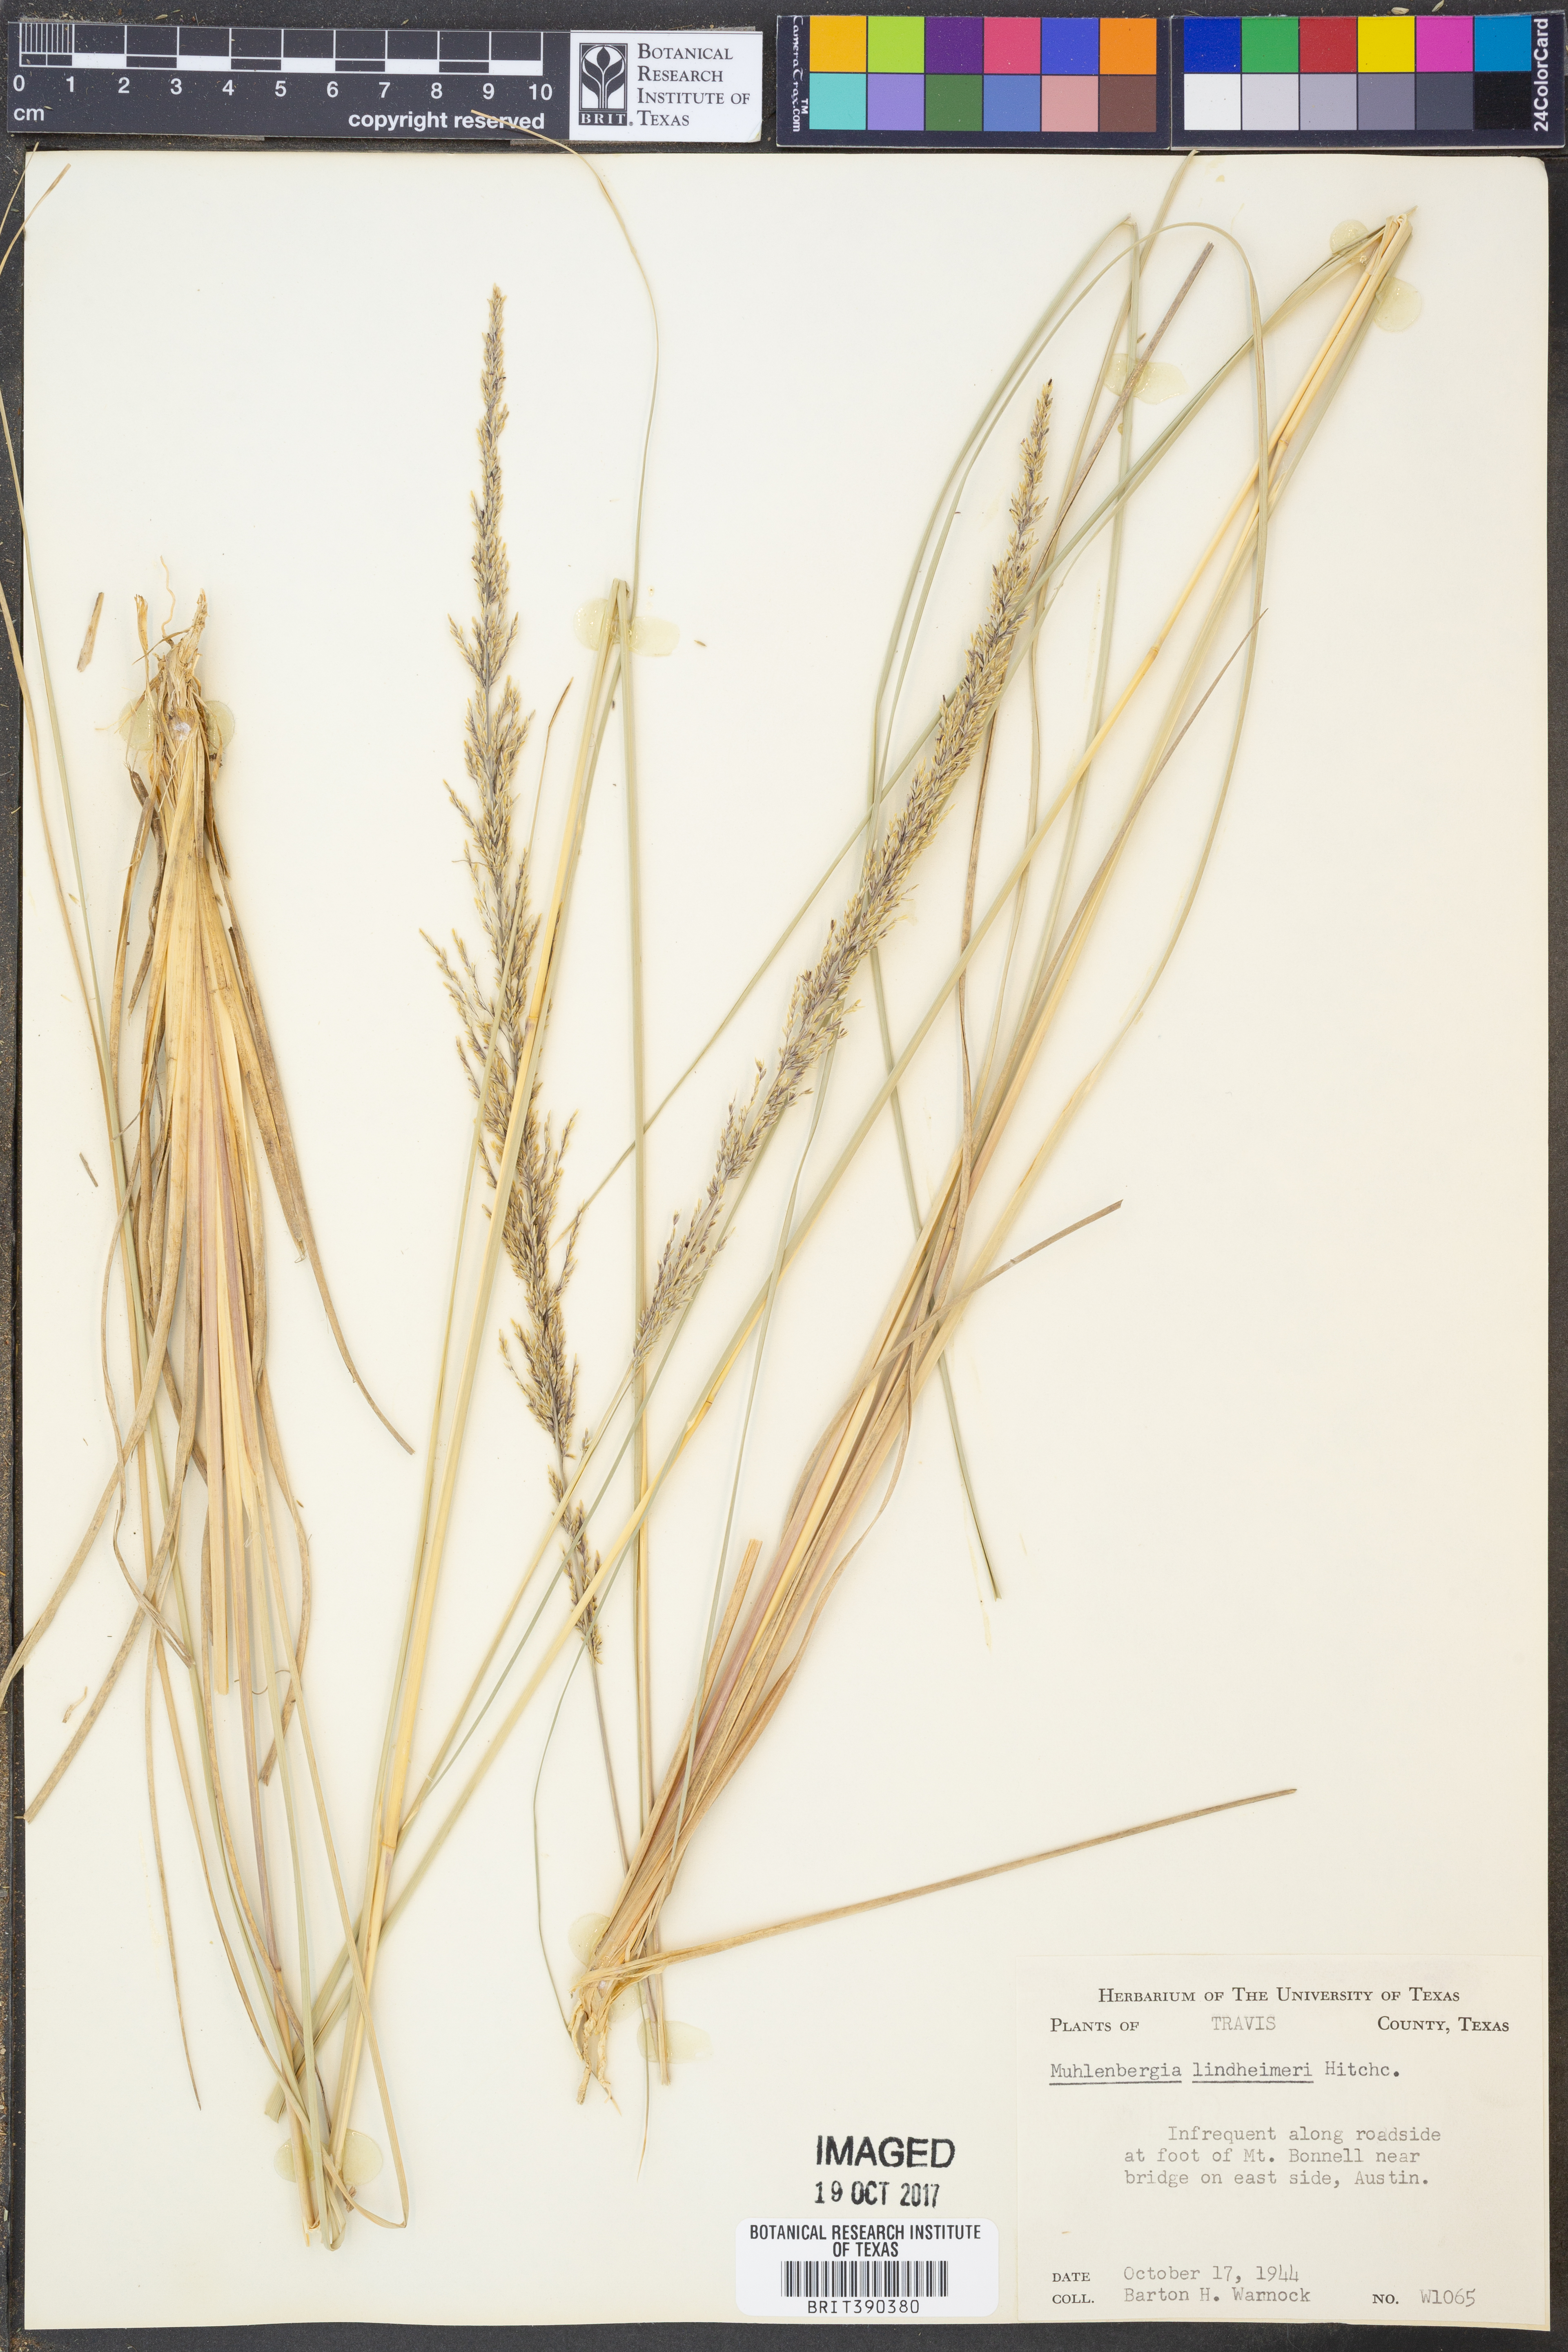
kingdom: Plantae
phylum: Tracheophyta
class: Liliopsida
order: Poales
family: Poaceae
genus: Muhlenbergia
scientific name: Muhlenbergia lindheimeri
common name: Lindheimer's muhly
